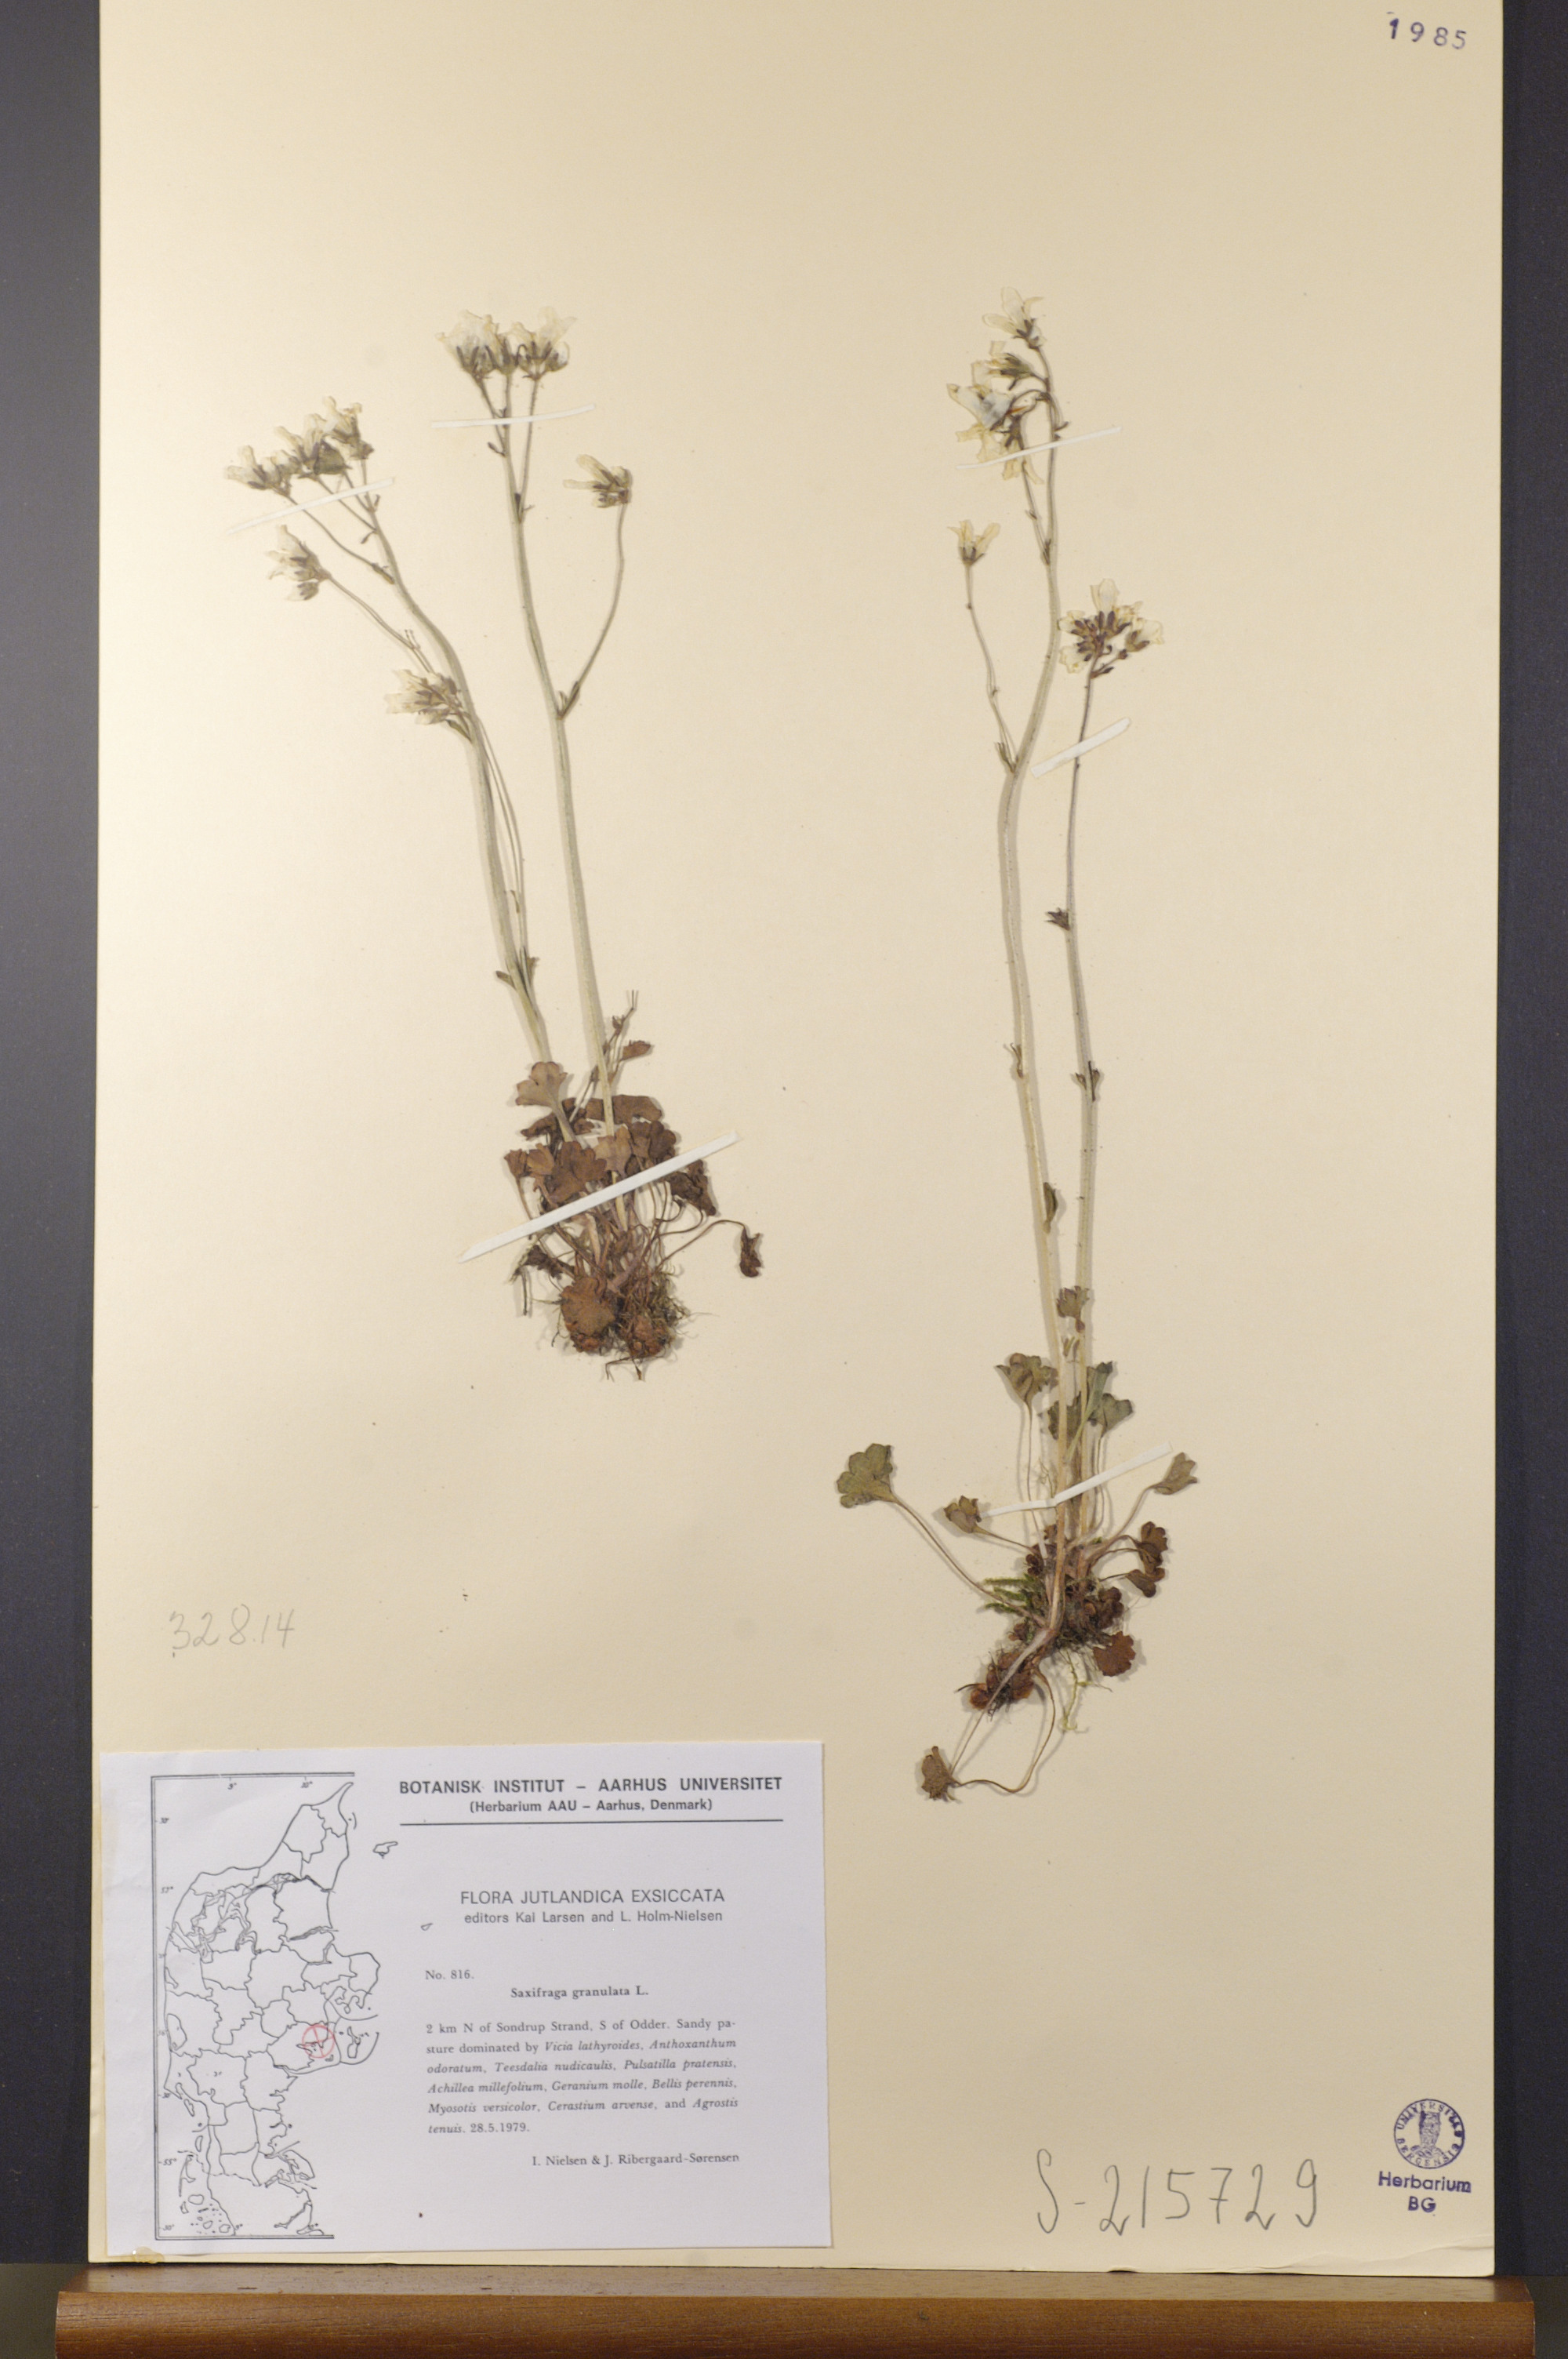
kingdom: Plantae
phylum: Tracheophyta
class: Magnoliopsida
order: Saxifragales
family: Saxifragaceae
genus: Saxifraga
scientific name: Saxifraga granulata
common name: Meadow saxifrage
